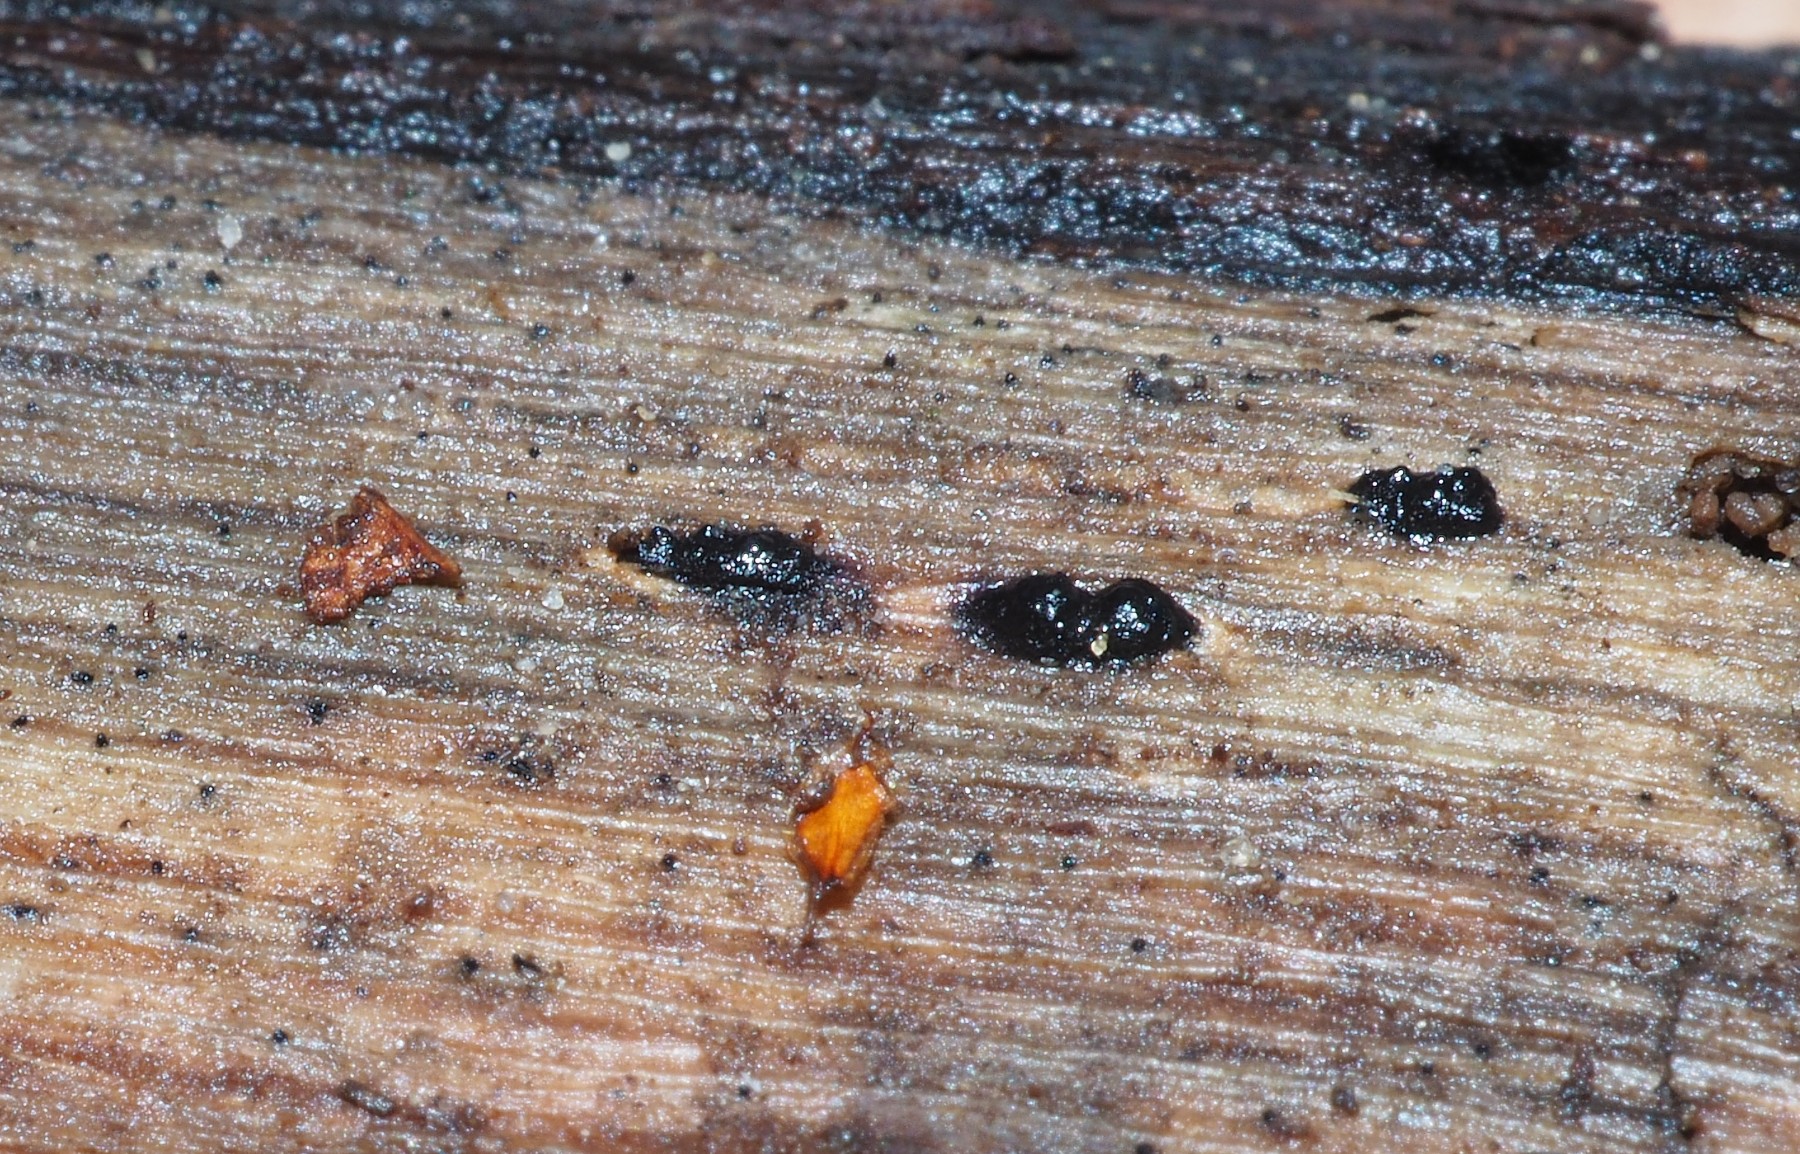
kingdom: Fungi
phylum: Ascomycota
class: Sordariomycetes
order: Xylariales
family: Xylariaceae
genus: Euepixylon
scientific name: Euepixylon udum
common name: ege-kuldyne
